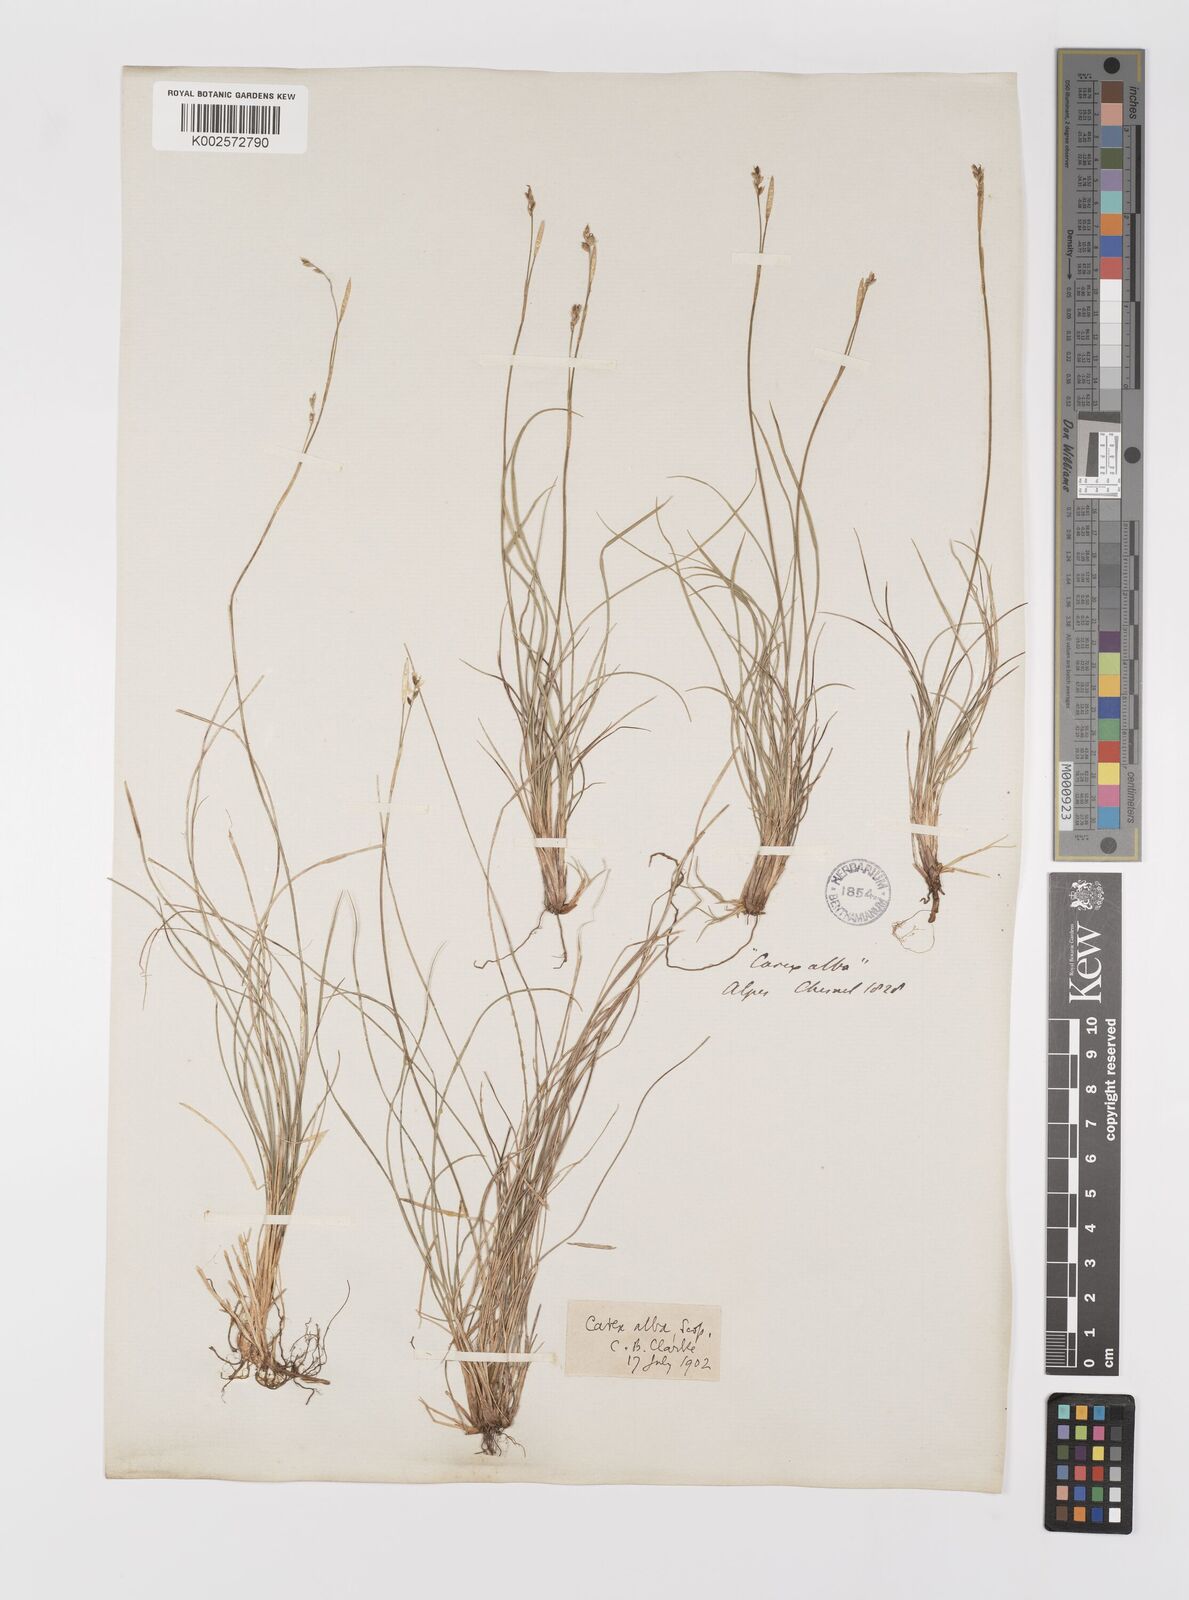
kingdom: Plantae
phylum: Tracheophyta
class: Liliopsida
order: Poales
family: Cyperaceae
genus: Carex
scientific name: Carex alba
